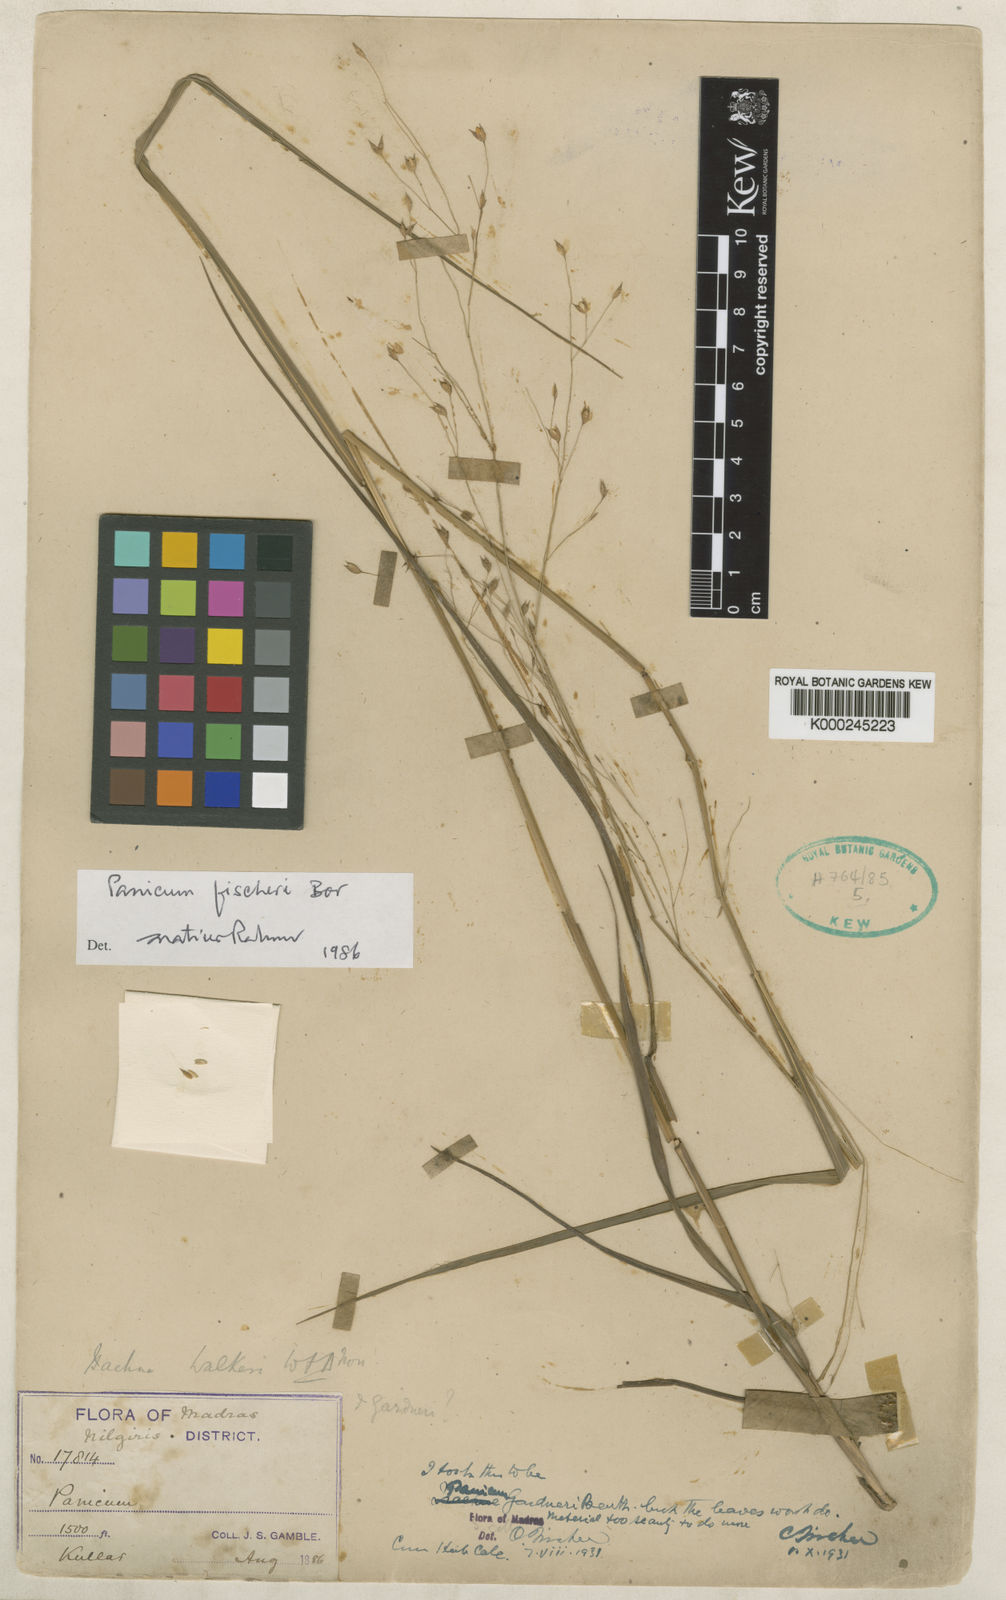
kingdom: Plantae
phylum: Tracheophyta
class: Liliopsida
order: Poales
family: Poaceae
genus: Panicum
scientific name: Panicum fischeri
